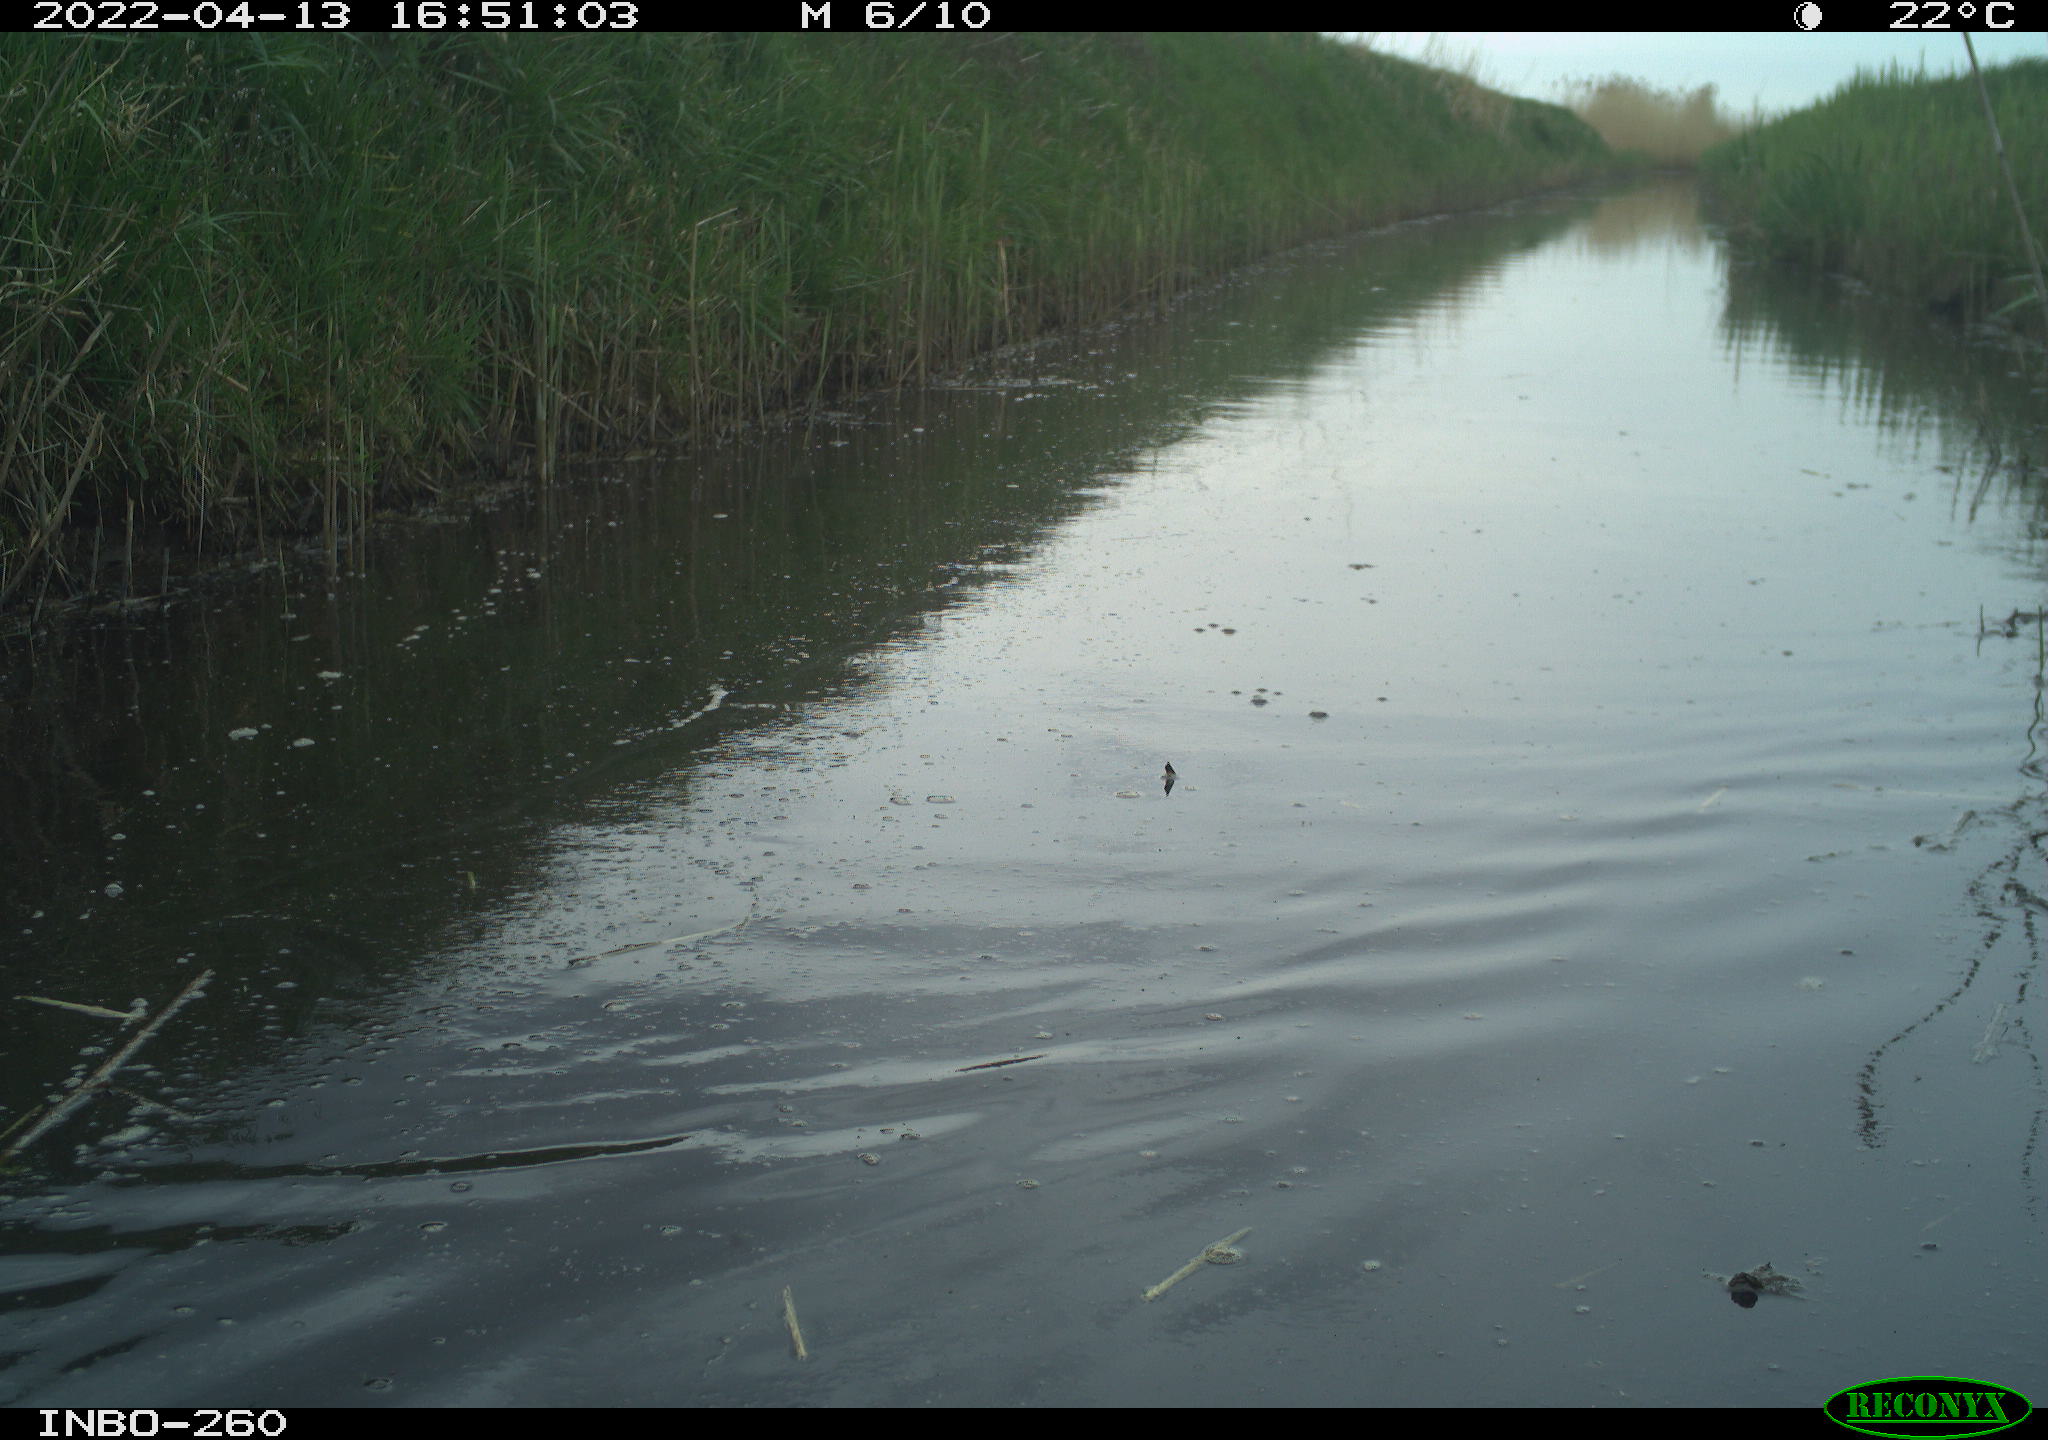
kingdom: Animalia
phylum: Chordata
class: Aves
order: Gruiformes
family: Rallidae
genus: Fulica
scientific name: Fulica atra
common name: Eurasian coot
